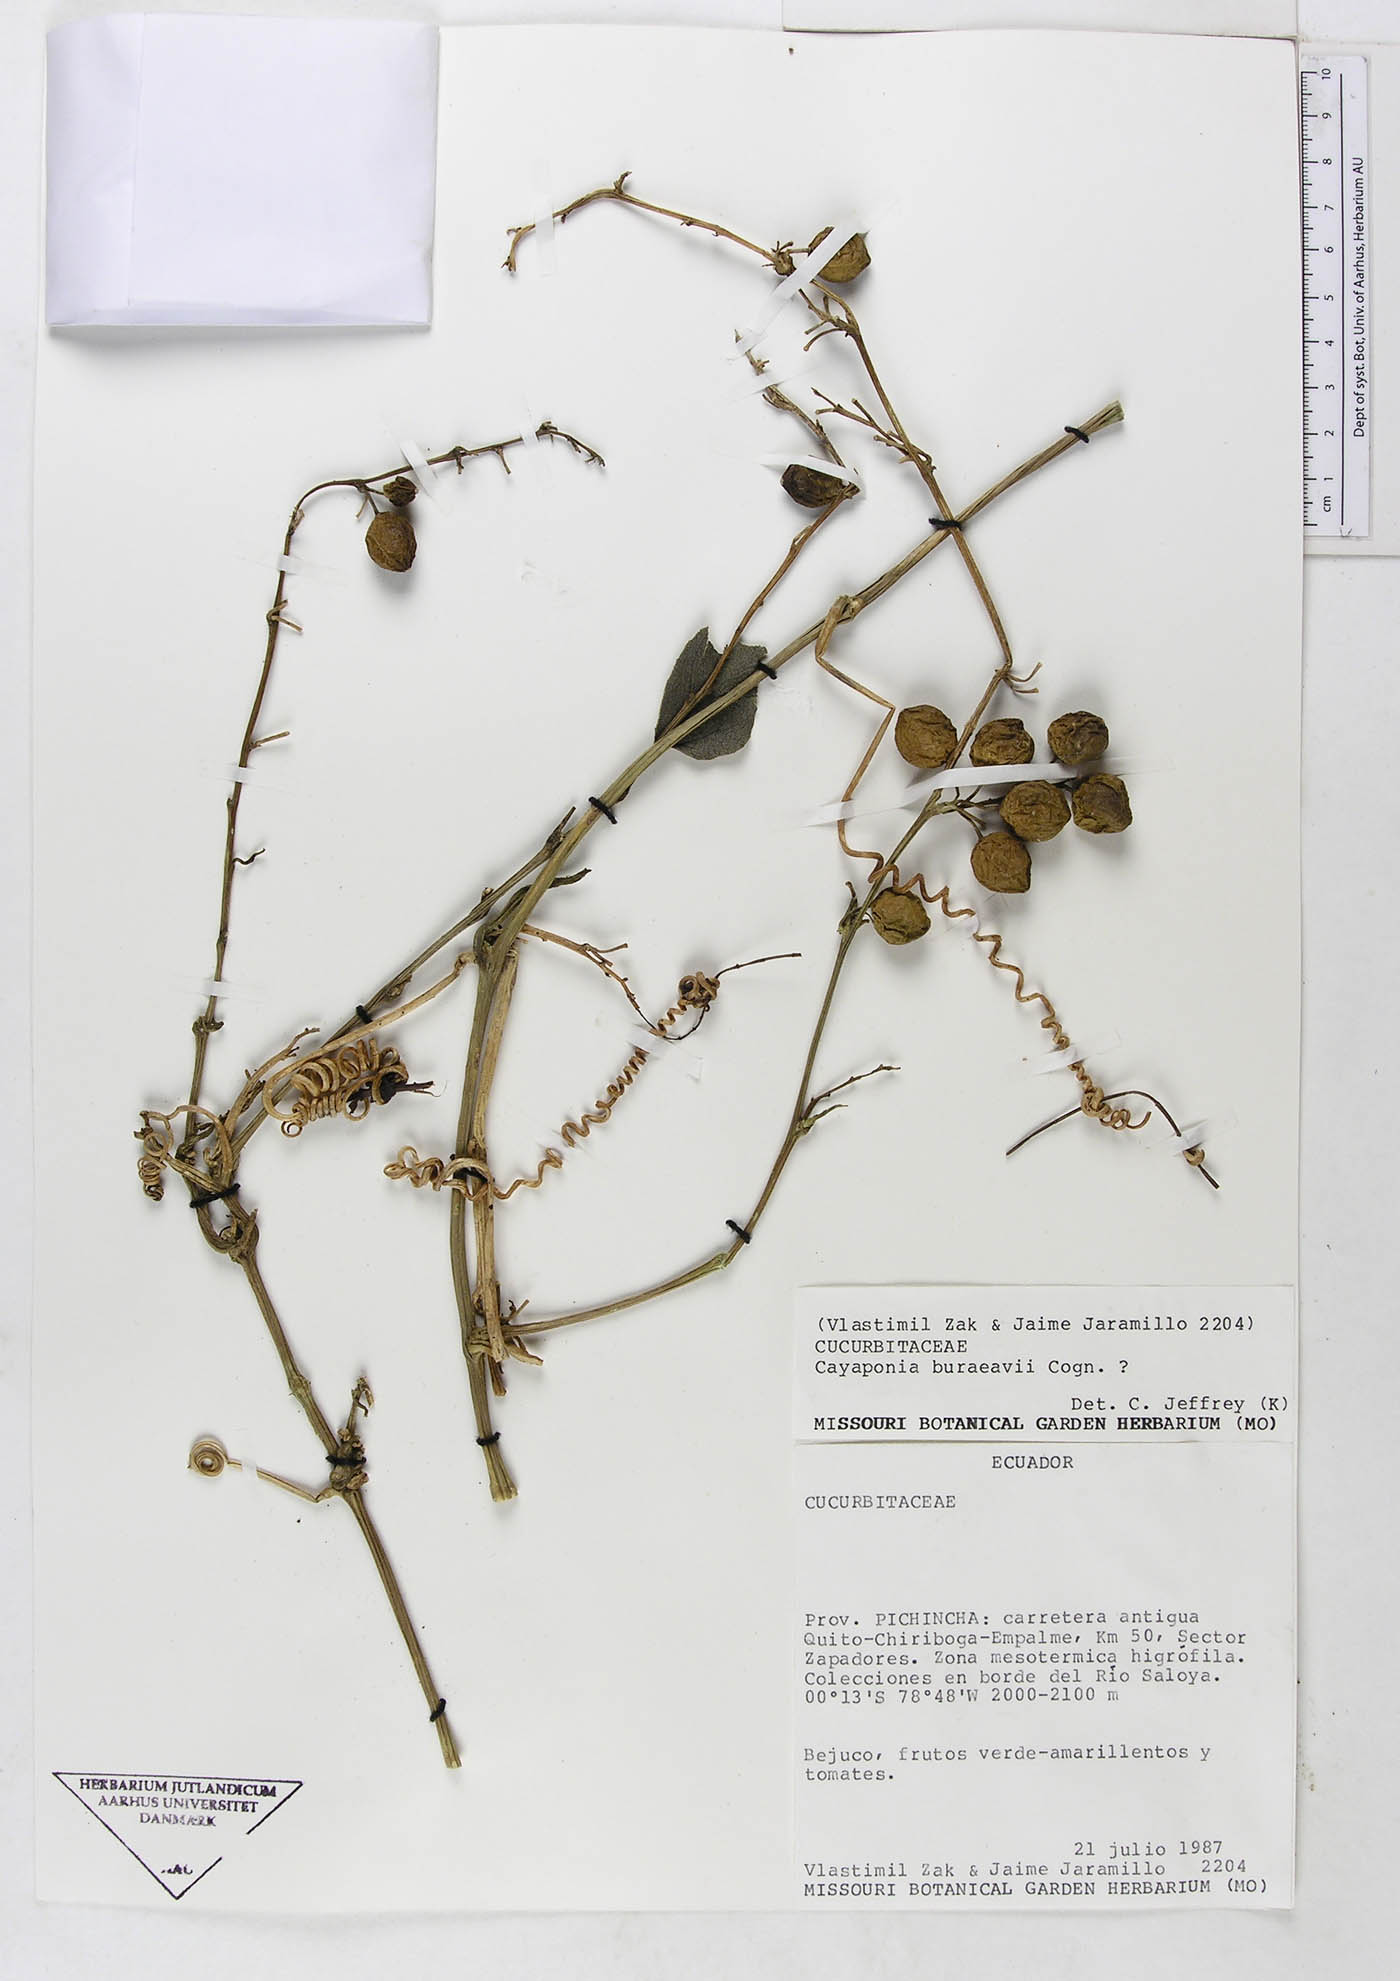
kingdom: Plantae
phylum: Tracheophyta
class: Magnoliopsida
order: Cucurbitales
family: Cucurbitaceae
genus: Cayaponia
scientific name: Cayaponia buraeavii
